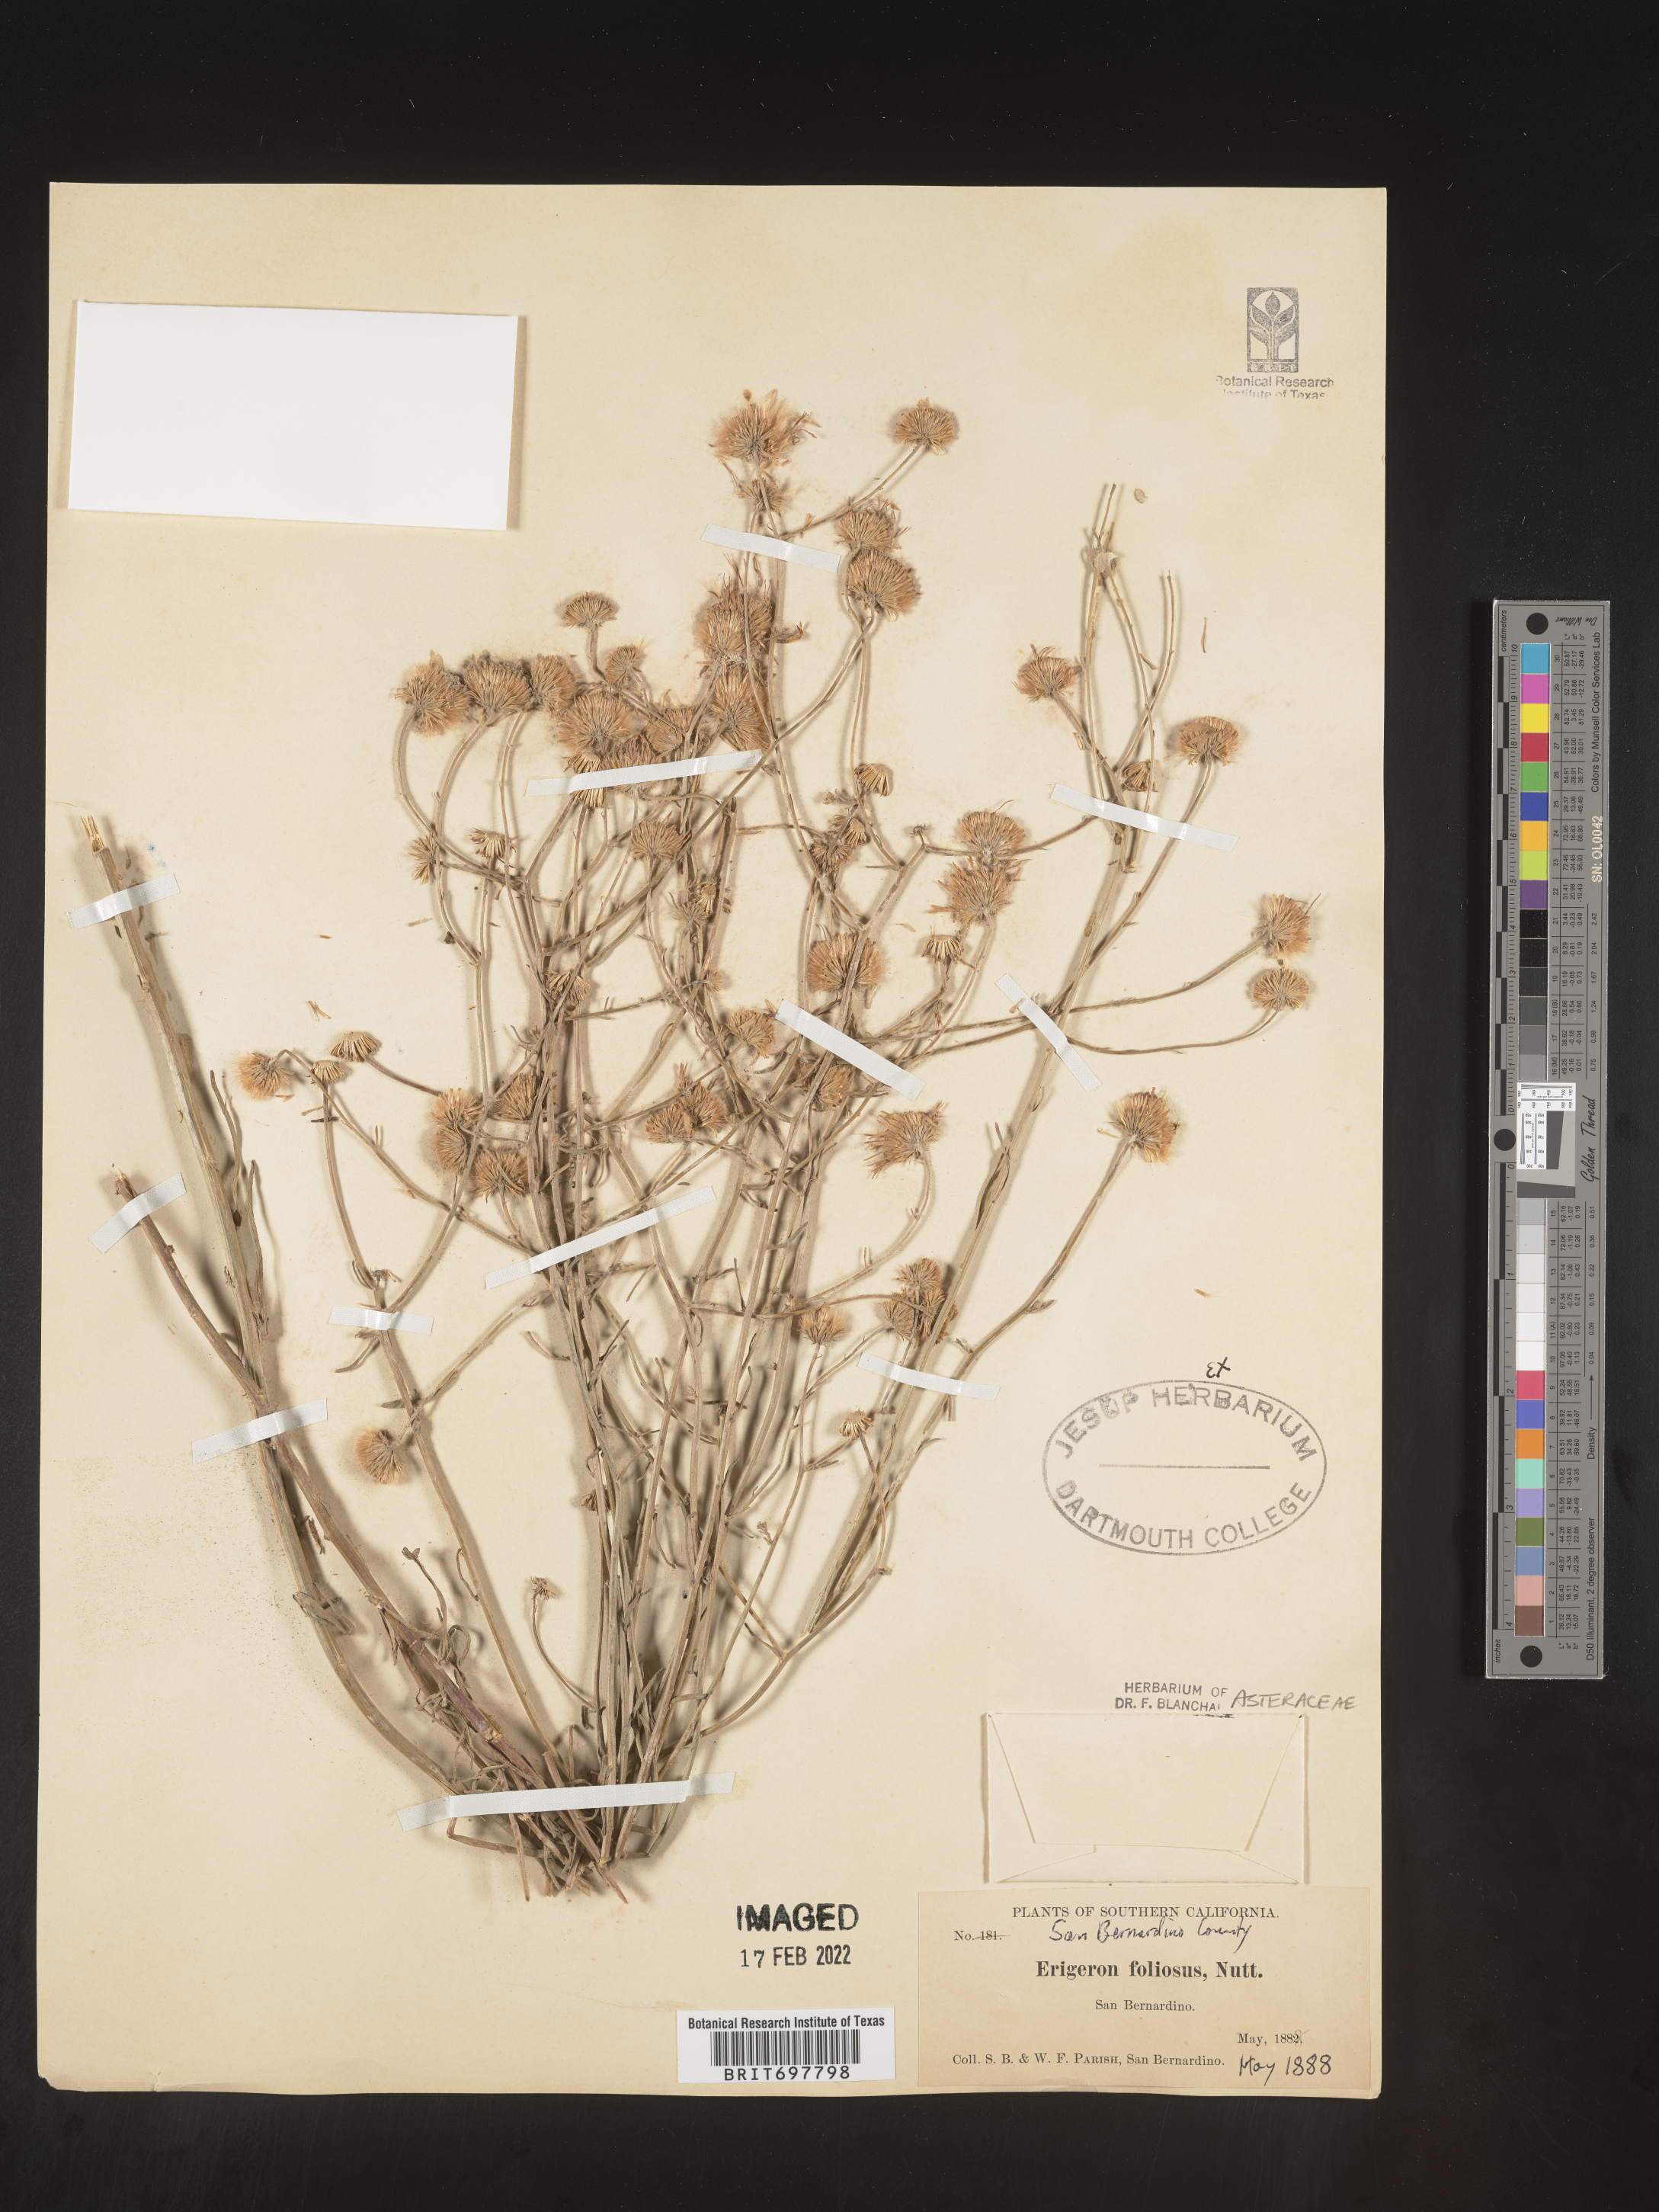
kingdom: Plantae
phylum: Tracheophyta
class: Magnoliopsida
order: Asterales
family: Asteraceae
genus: Erigeron
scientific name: Erigeron foliosus
